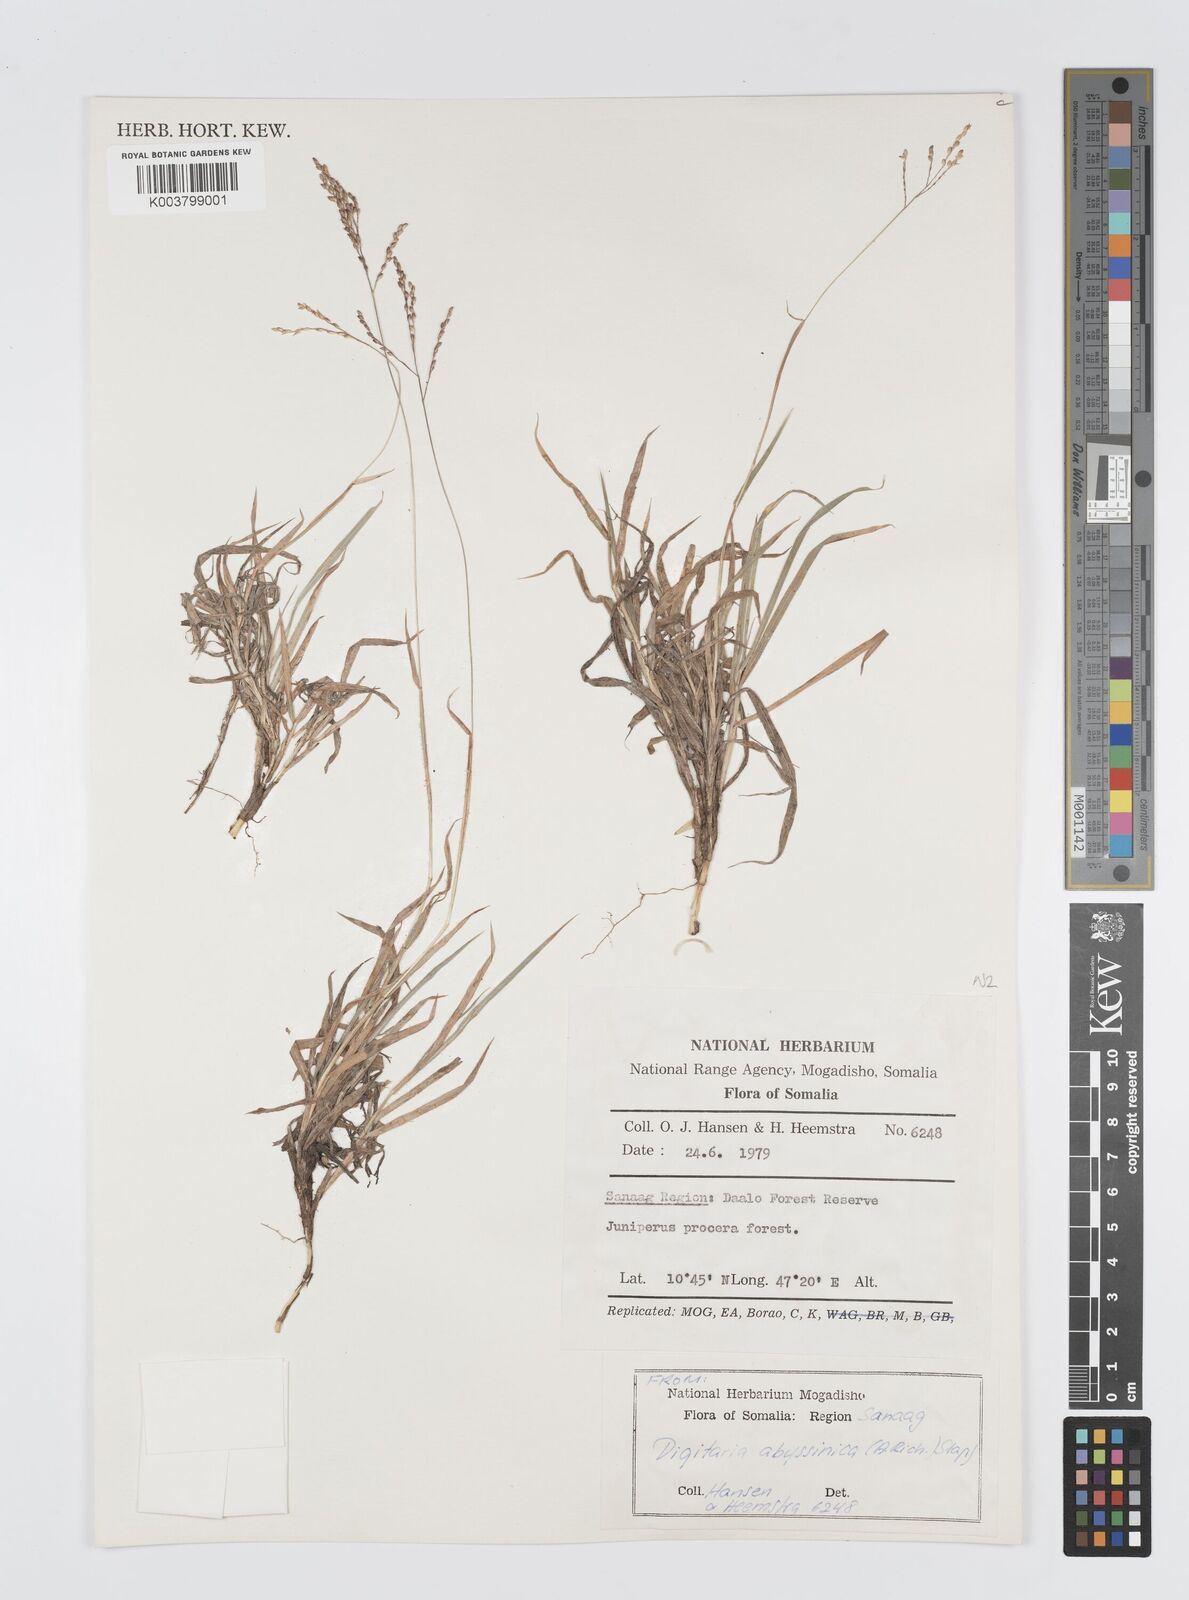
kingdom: Plantae
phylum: Tracheophyta
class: Liliopsida
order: Poales
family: Poaceae
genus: Digitaria
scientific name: Digitaria abyssinica
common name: African couchgrass
